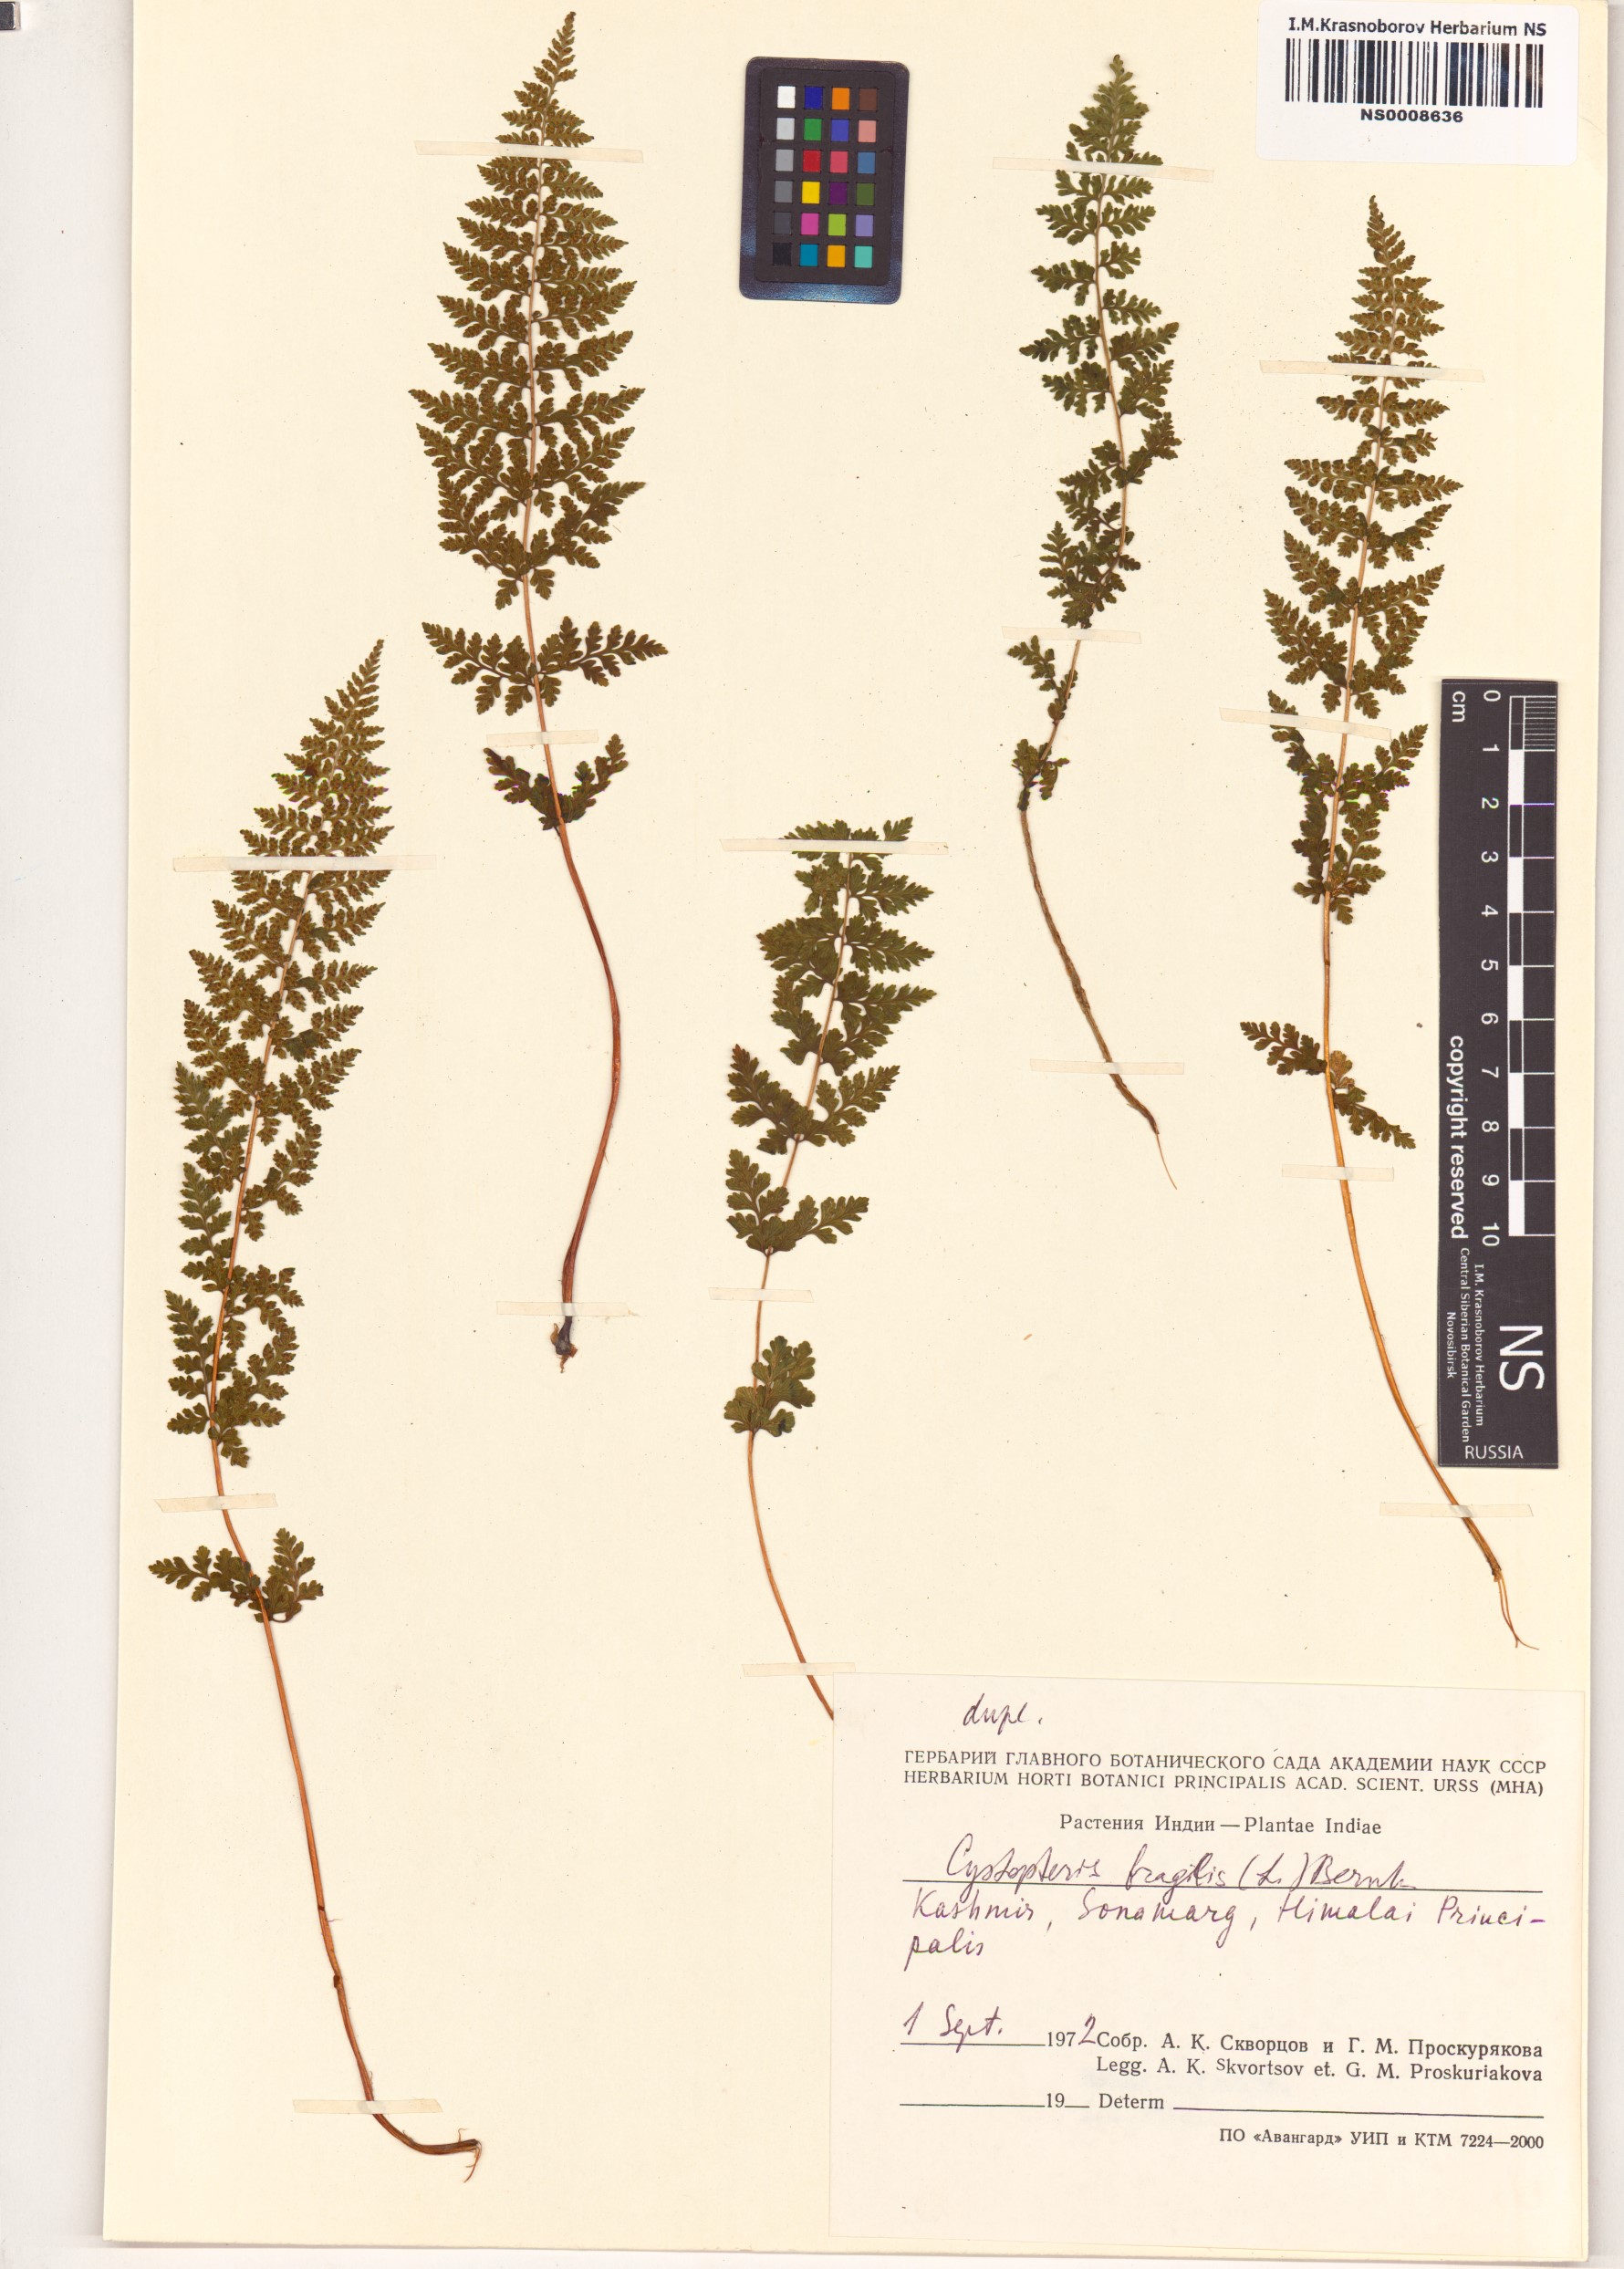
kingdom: Plantae
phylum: Tracheophyta
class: Polypodiopsida
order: Polypodiales
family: Cystopteridaceae
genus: Cystopteris
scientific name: Cystopteris fragilis
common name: Brittle bladder fern
